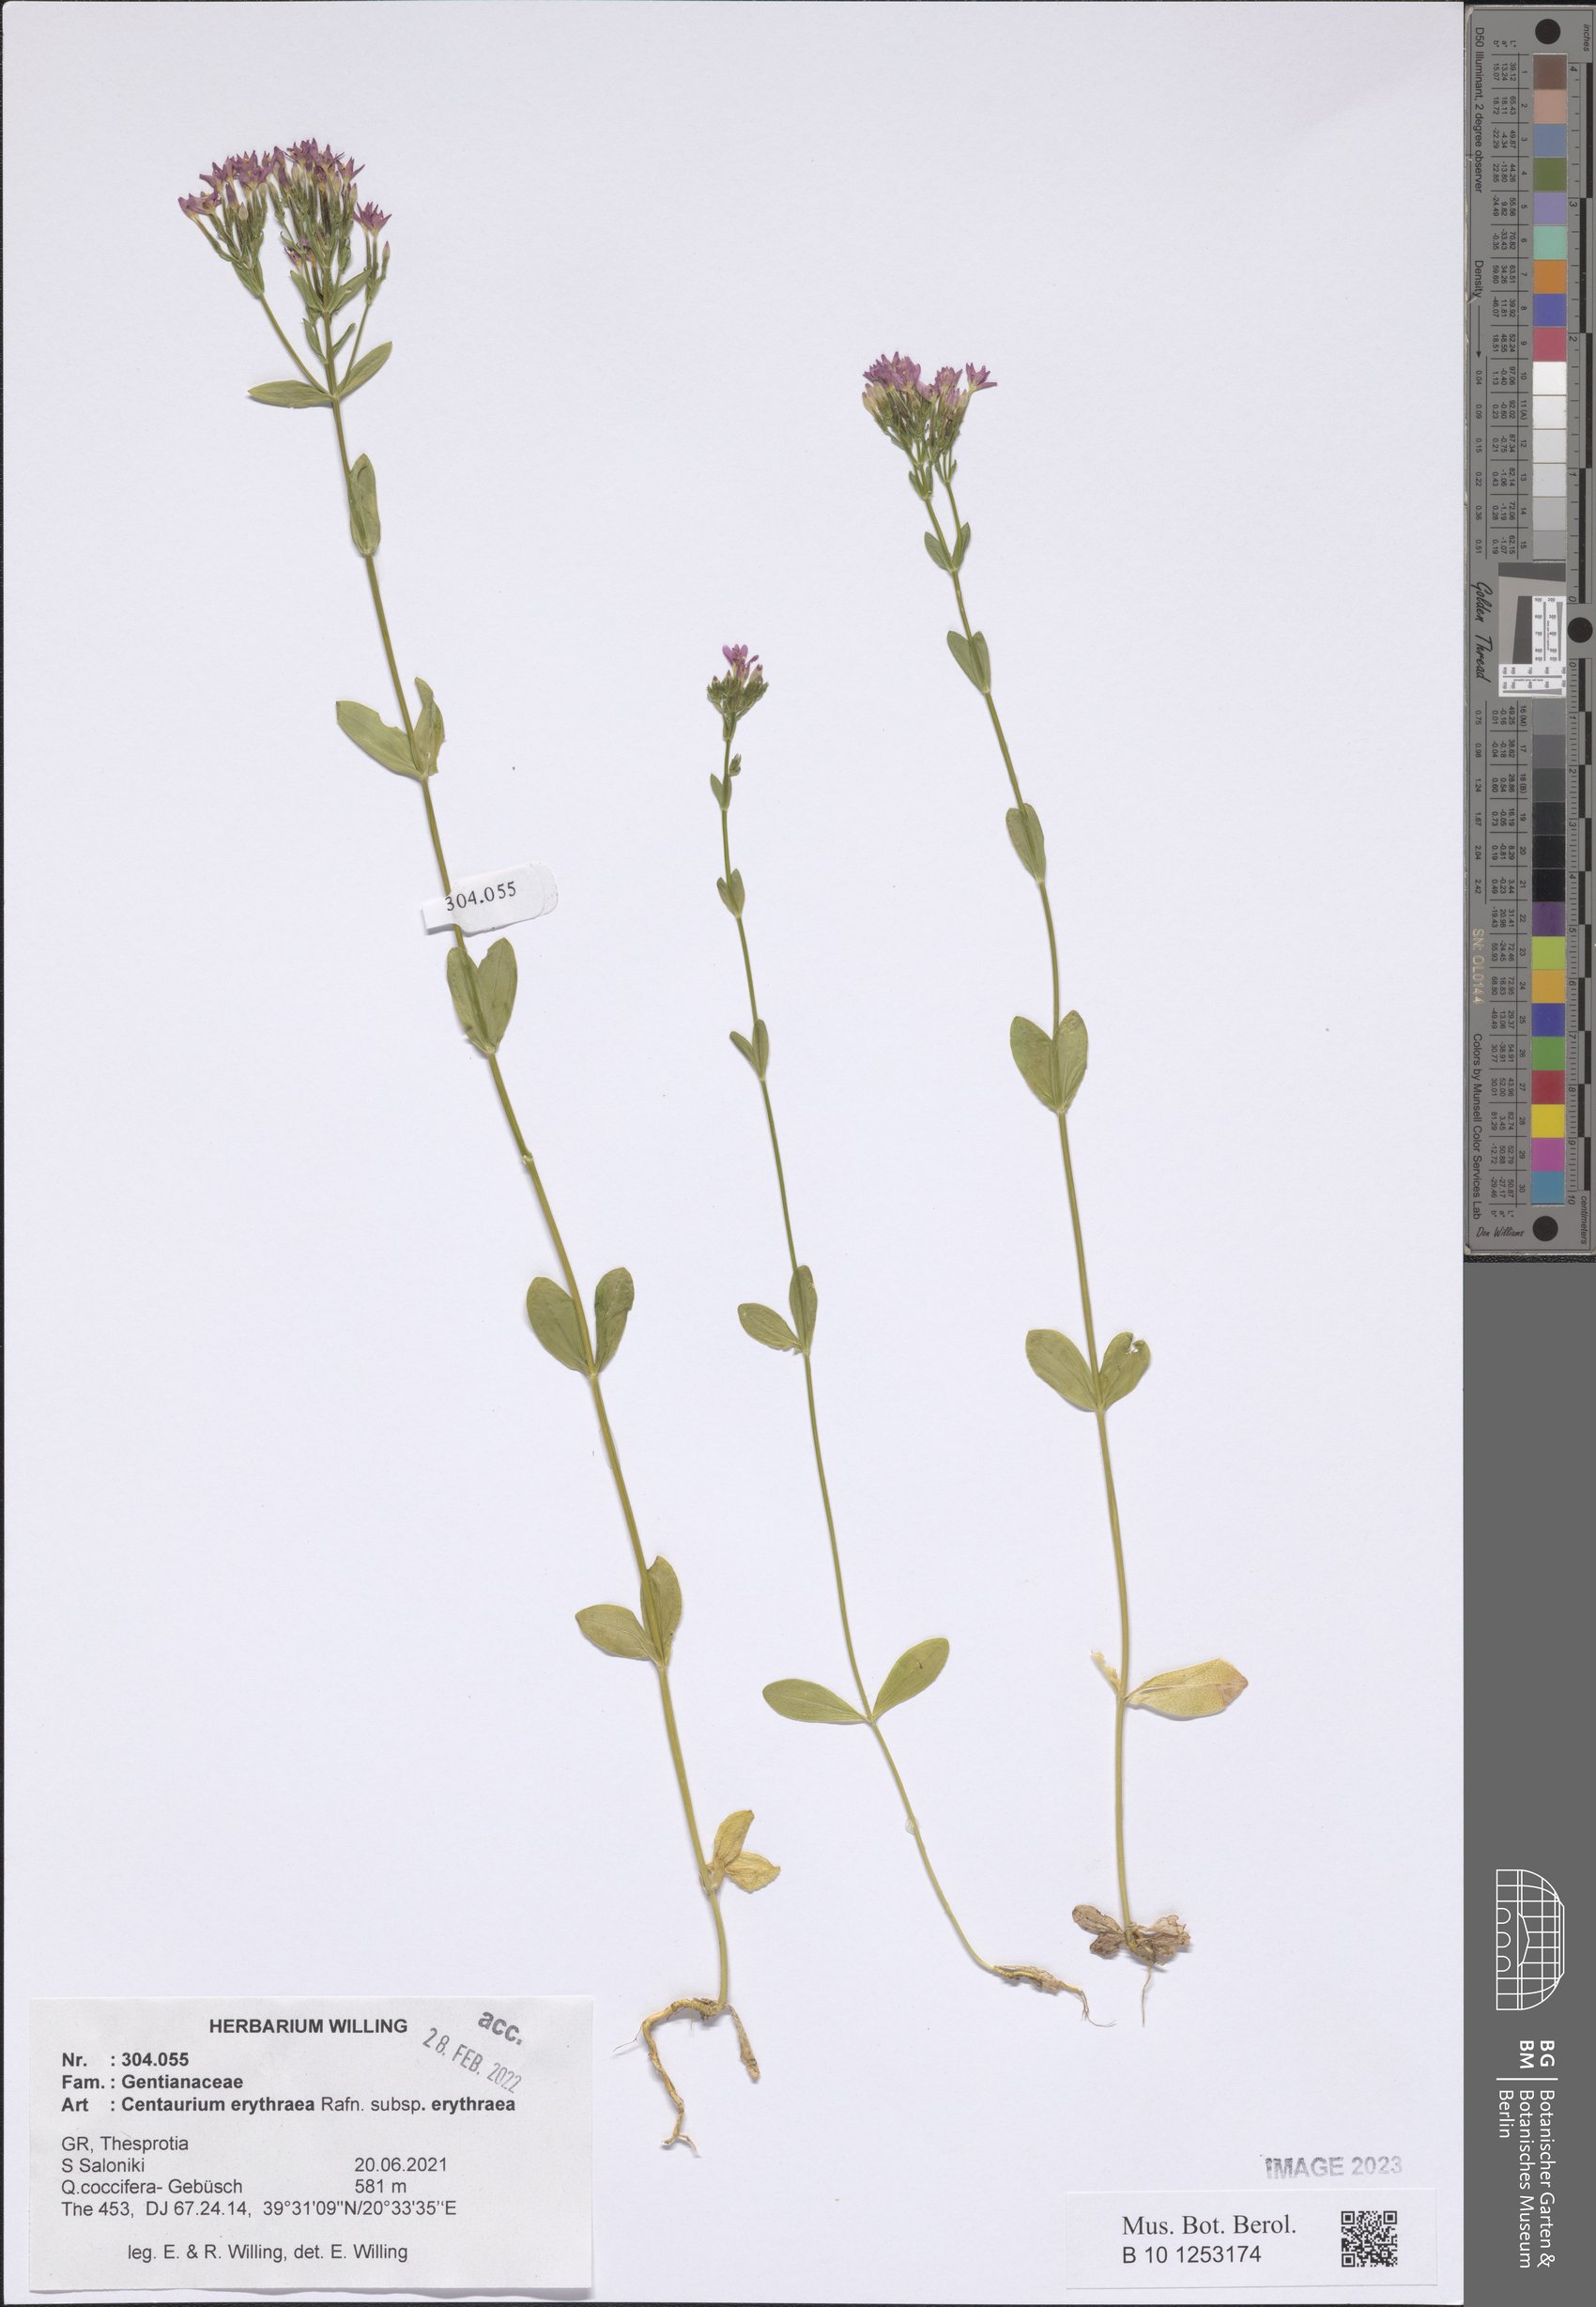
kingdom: Plantae
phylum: Tracheophyta
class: Magnoliopsida
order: Gentianales
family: Gentianaceae
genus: Centaurium
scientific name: Centaurium erythraea
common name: Common centaury
